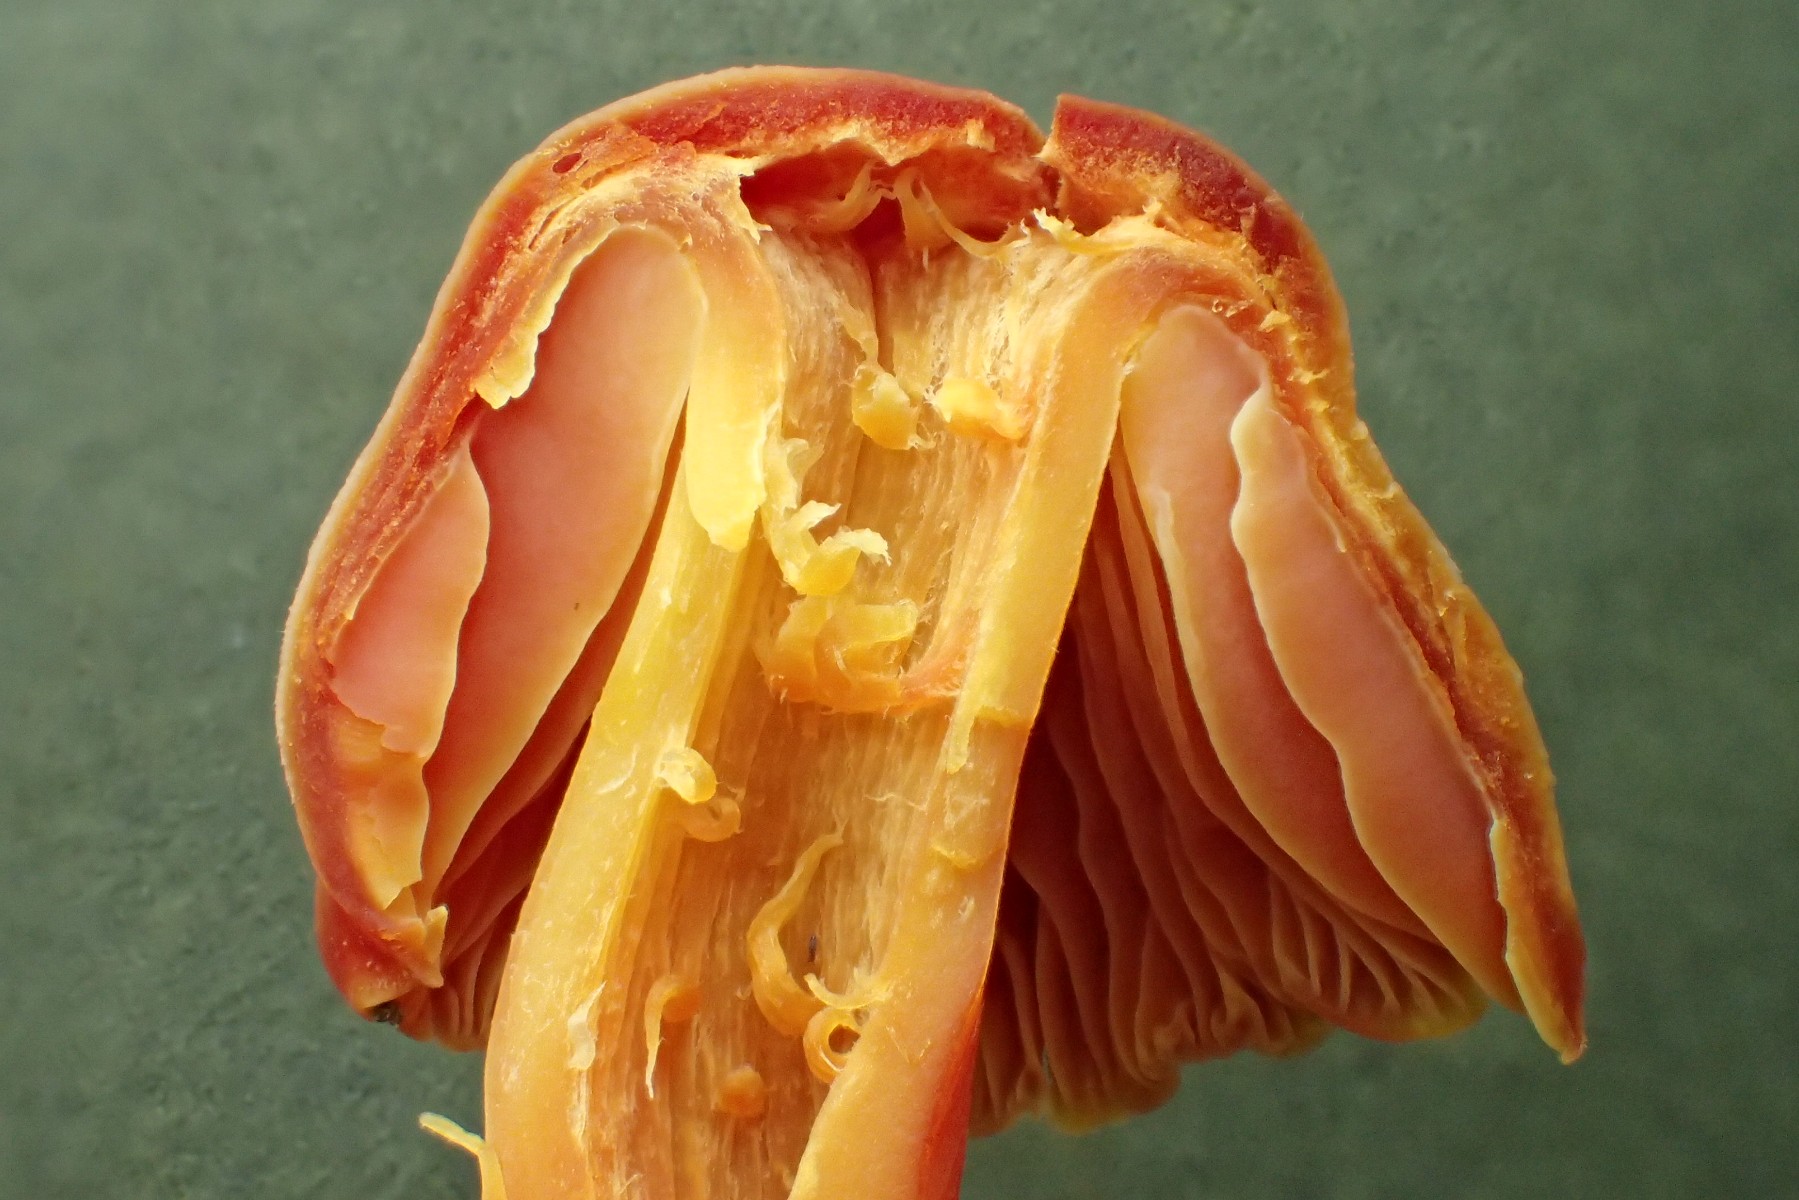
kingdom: Fungi
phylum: Basidiomycota
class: Agaricomycetes
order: Agaricales
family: Hygrophoraceae
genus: Hygrocybe
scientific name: Hygrocybe splendidissima
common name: knaldrød vokshat
